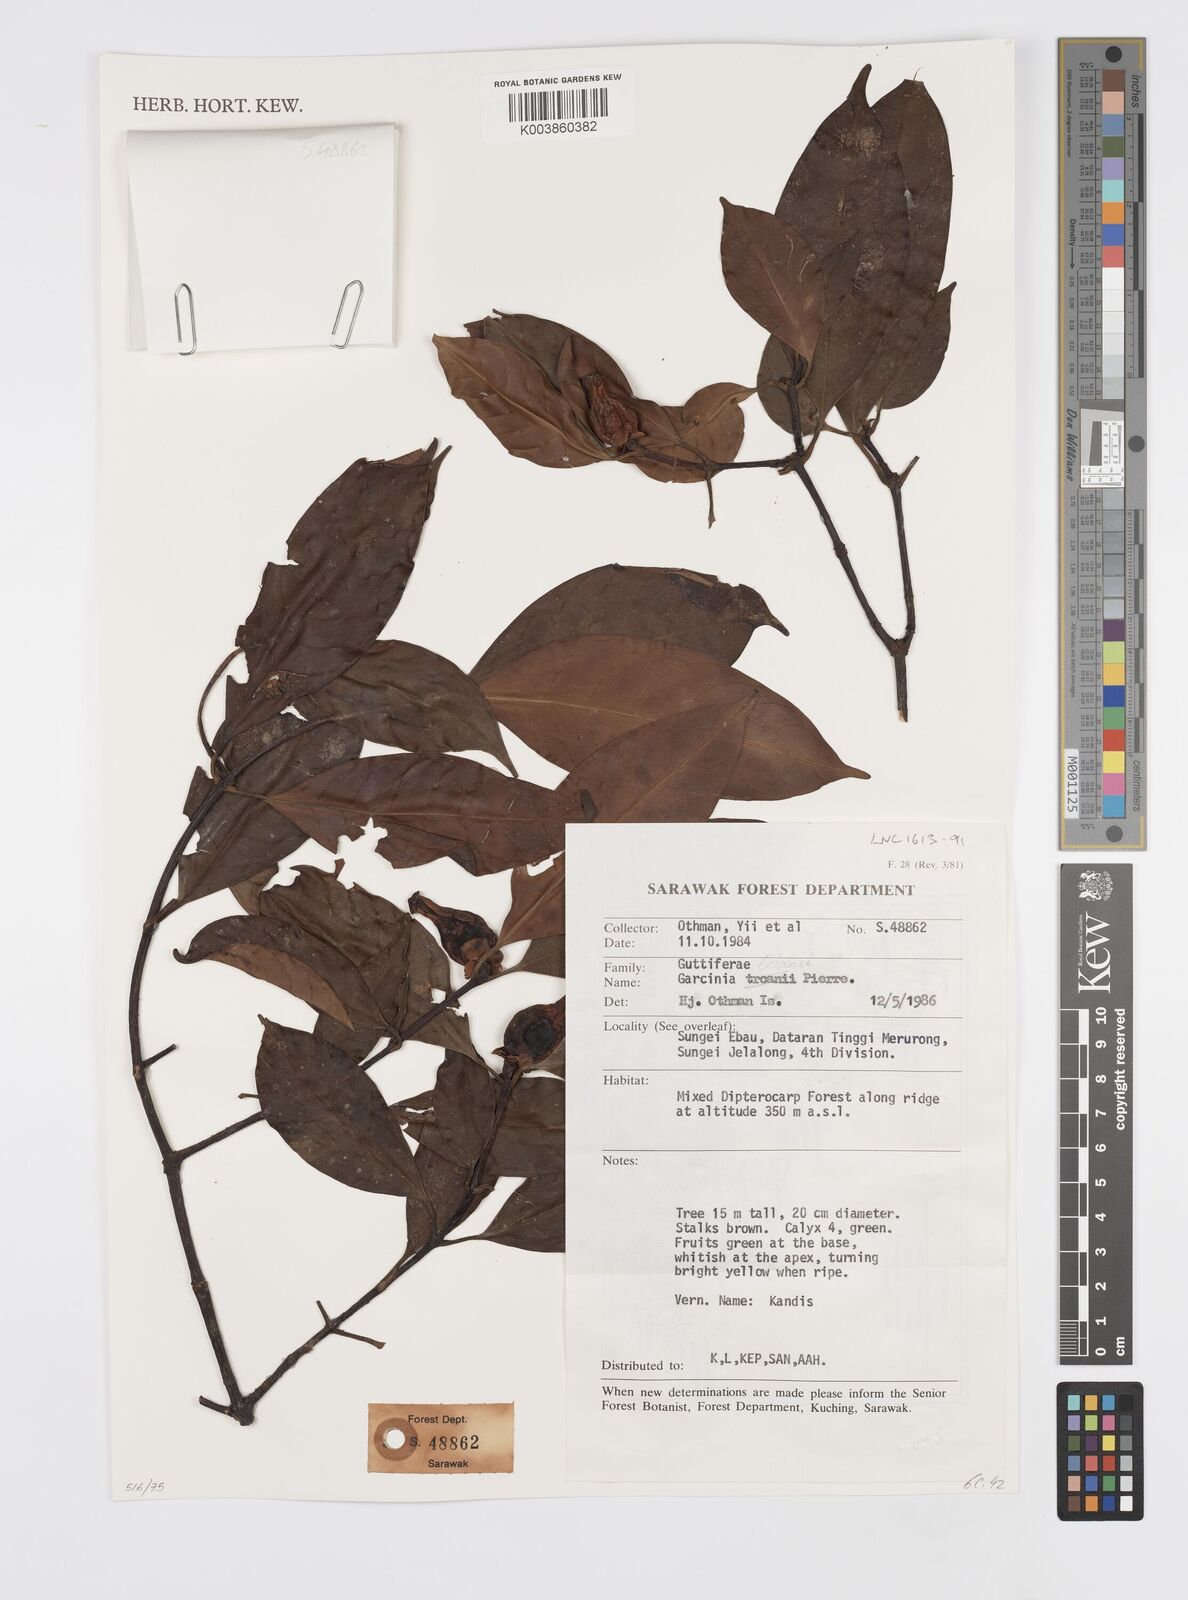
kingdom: Plantae
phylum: Tracheophyta
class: Magnoliopsida
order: Malpighiales
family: Clusiaceae
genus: Garcinia
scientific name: Garcinia trianii
